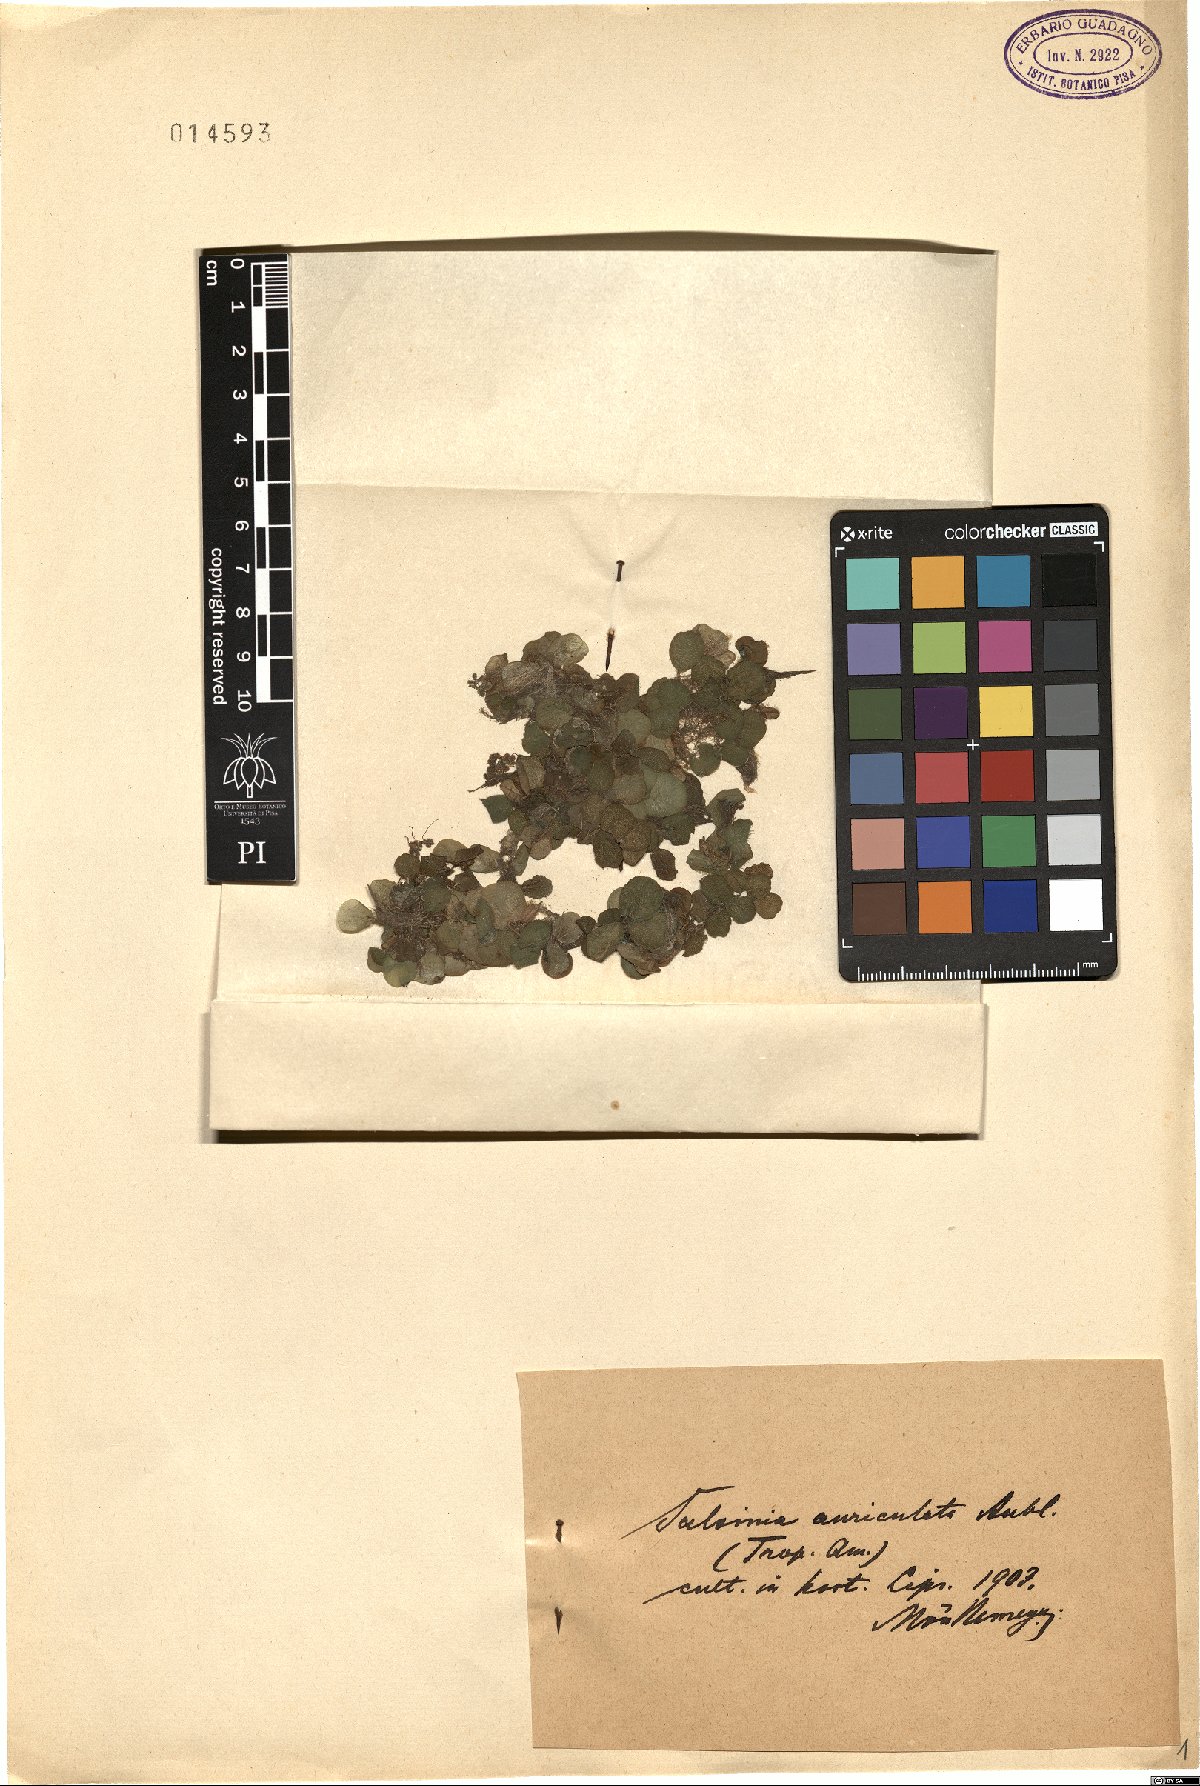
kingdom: Plantae
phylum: Tracheophyta
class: Polypodiopsida
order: Salviniales
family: Salviniaceae
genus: Salvinia
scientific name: Salvinia auriculata
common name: African payal
